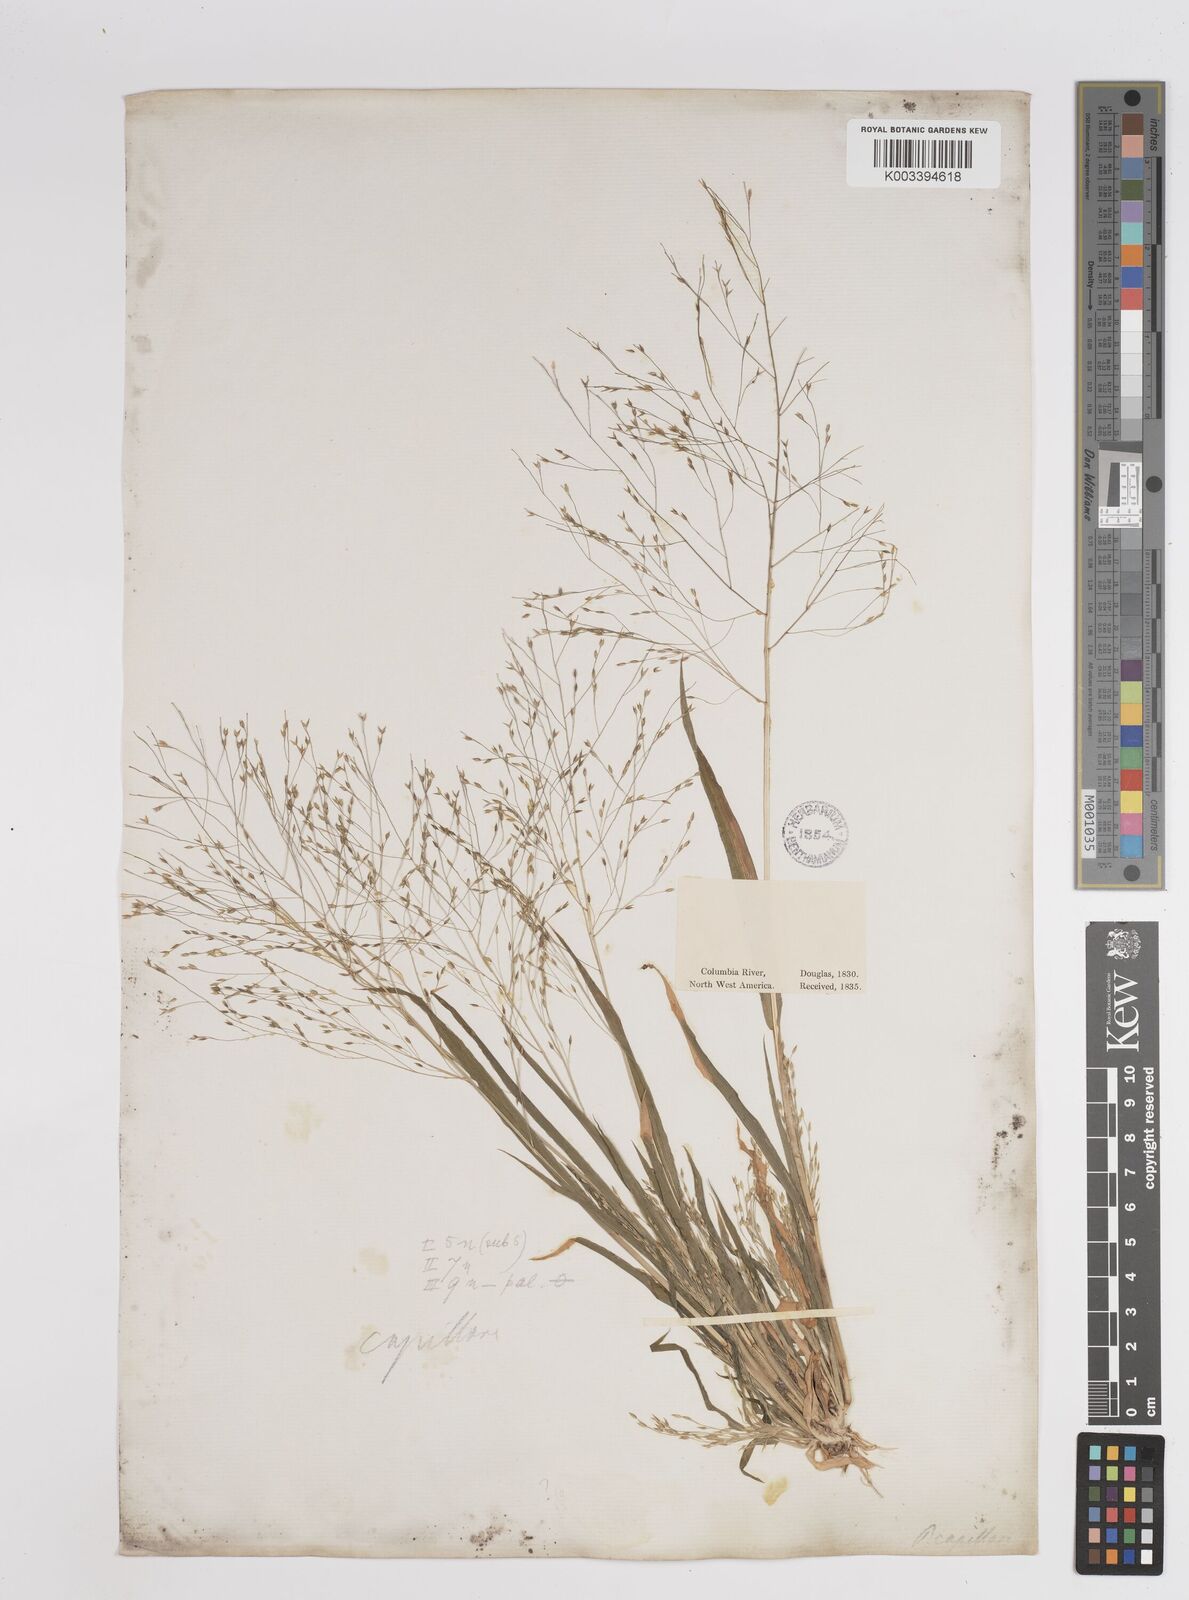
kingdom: Plantae
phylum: Tracheophyta
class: Liliopsida
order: Poales
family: Poaceae
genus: Panicum
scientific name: Panicum capillare
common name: Witch-grass
